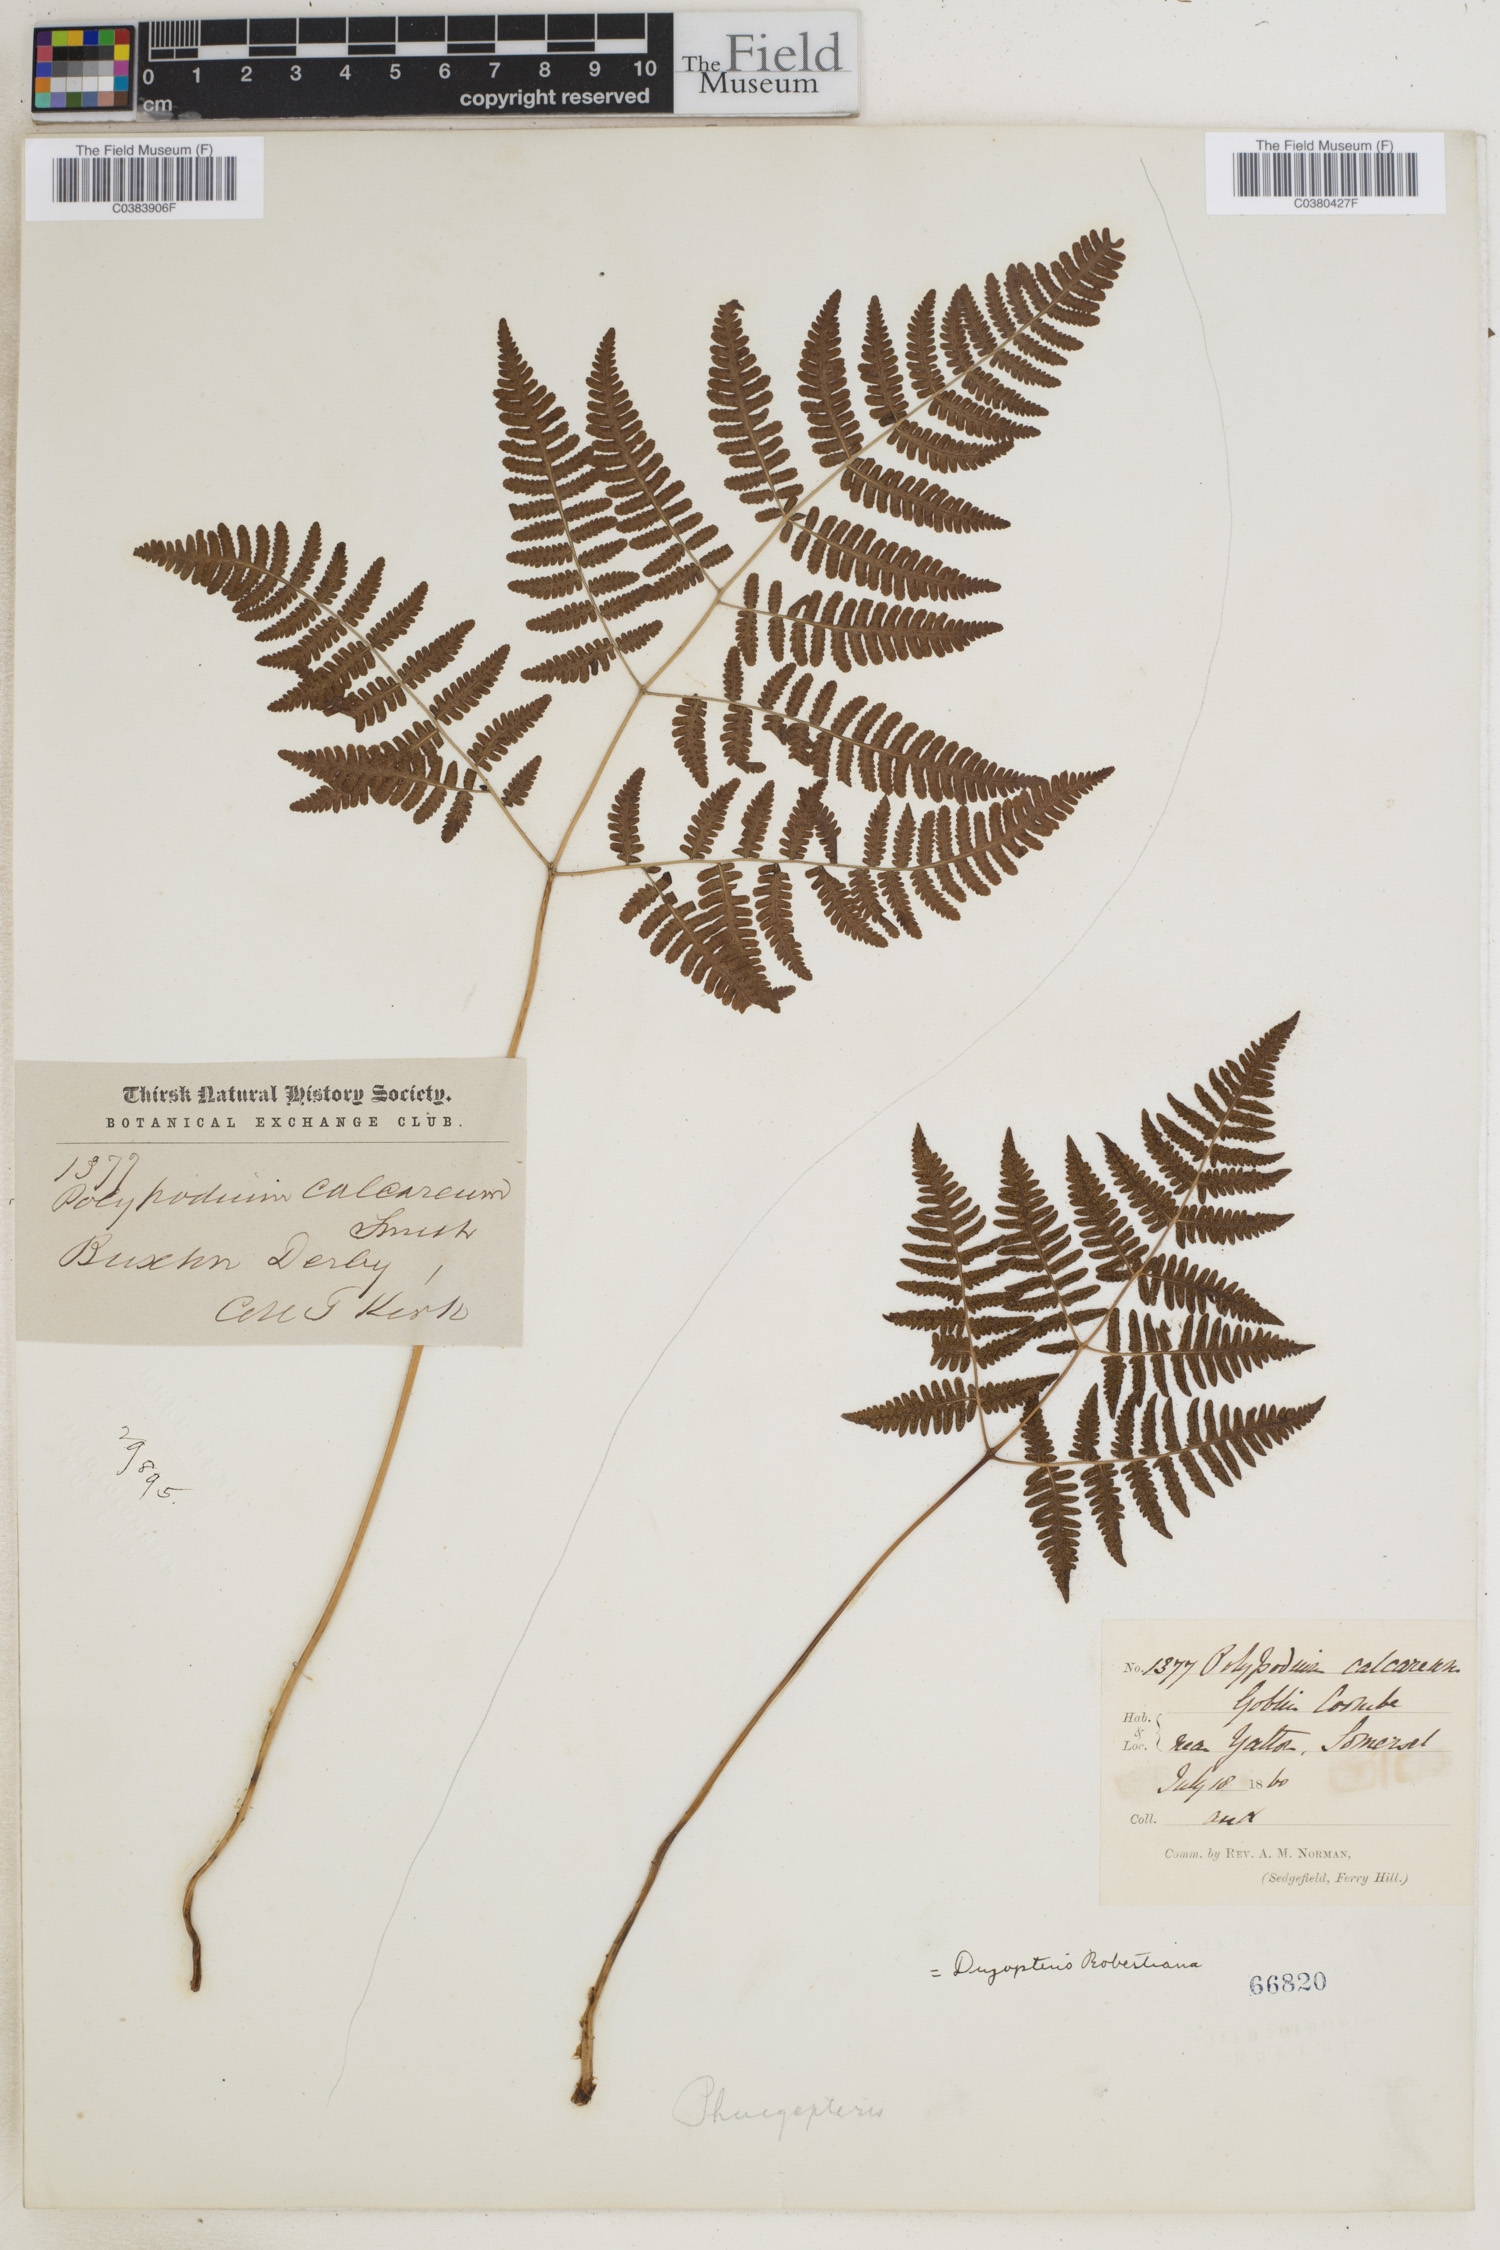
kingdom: Plantae
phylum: Tracheophyta
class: Polypodiopsida
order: Polypodiales
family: Cystopteridaceae
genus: Gymnocarpium
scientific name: Gymnocarpium robertianum
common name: Limestone fern
